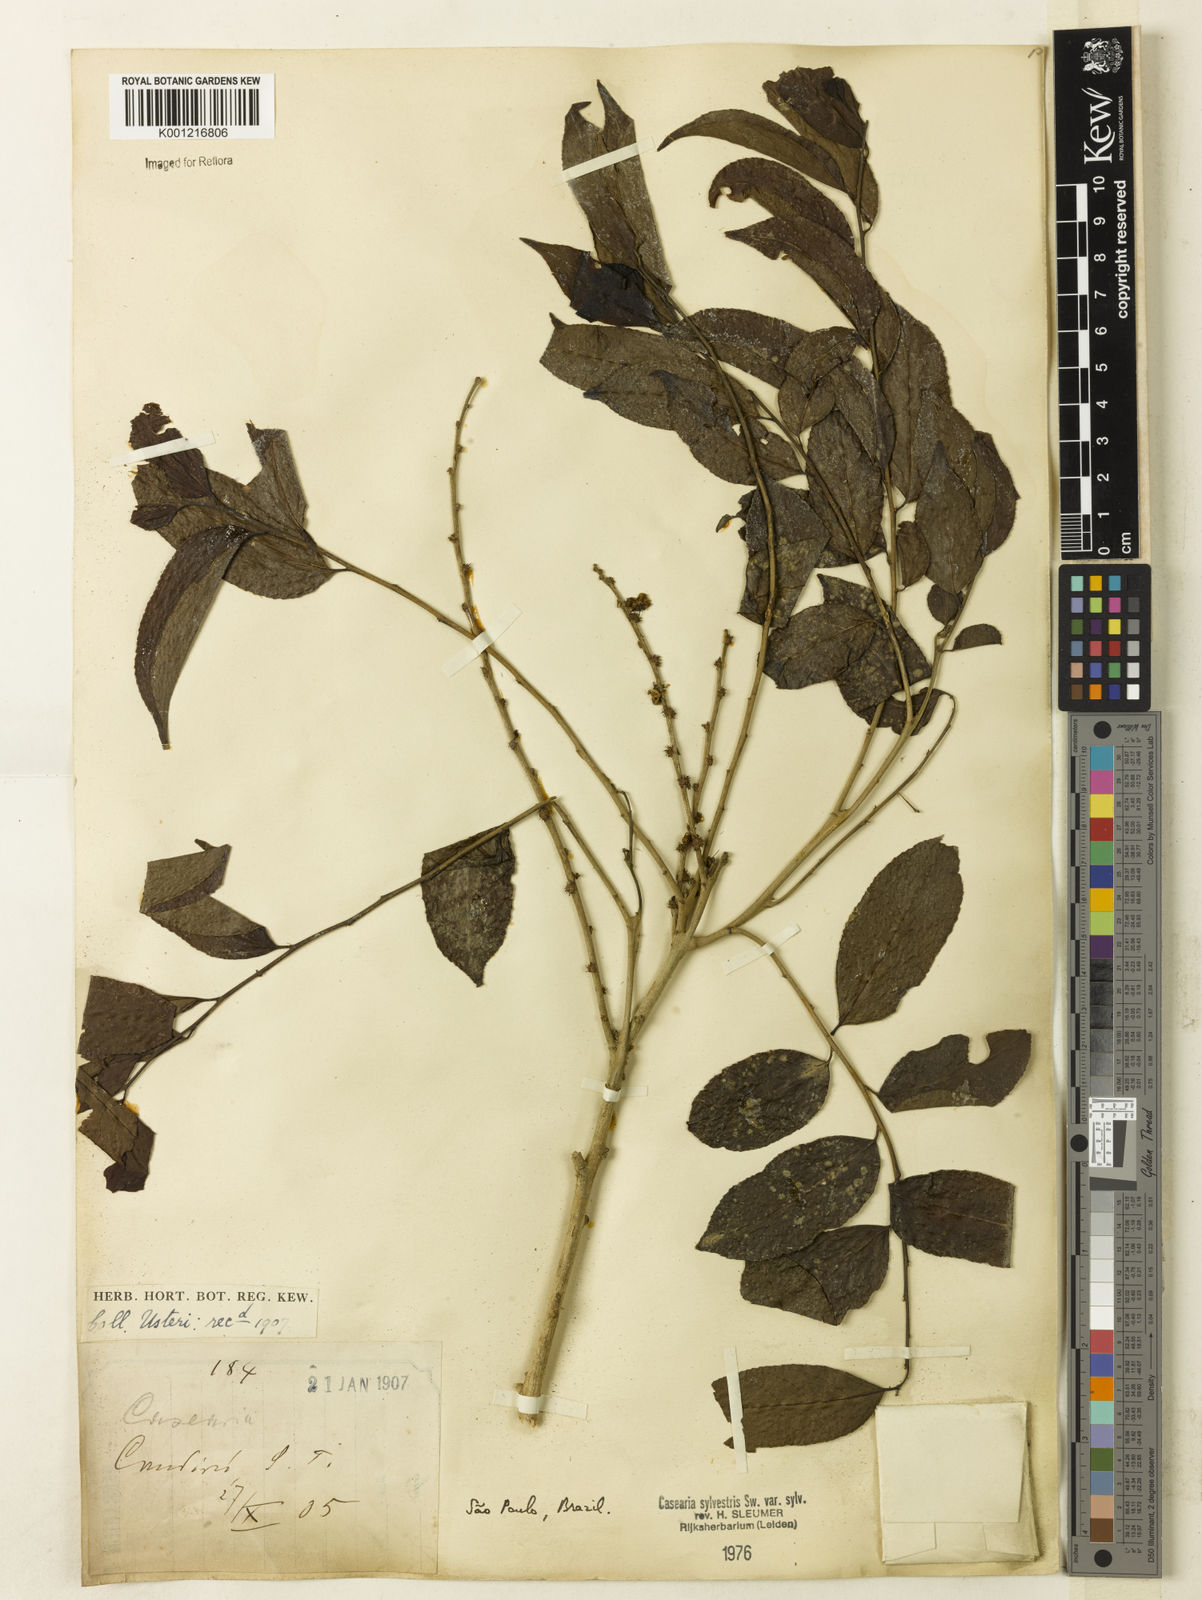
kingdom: Plantae
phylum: Tracheophyta
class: Magnoliopsida
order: Malpighiales
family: Salicaceae
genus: Casearia
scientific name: Casearia sylvestris
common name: Wild sage
